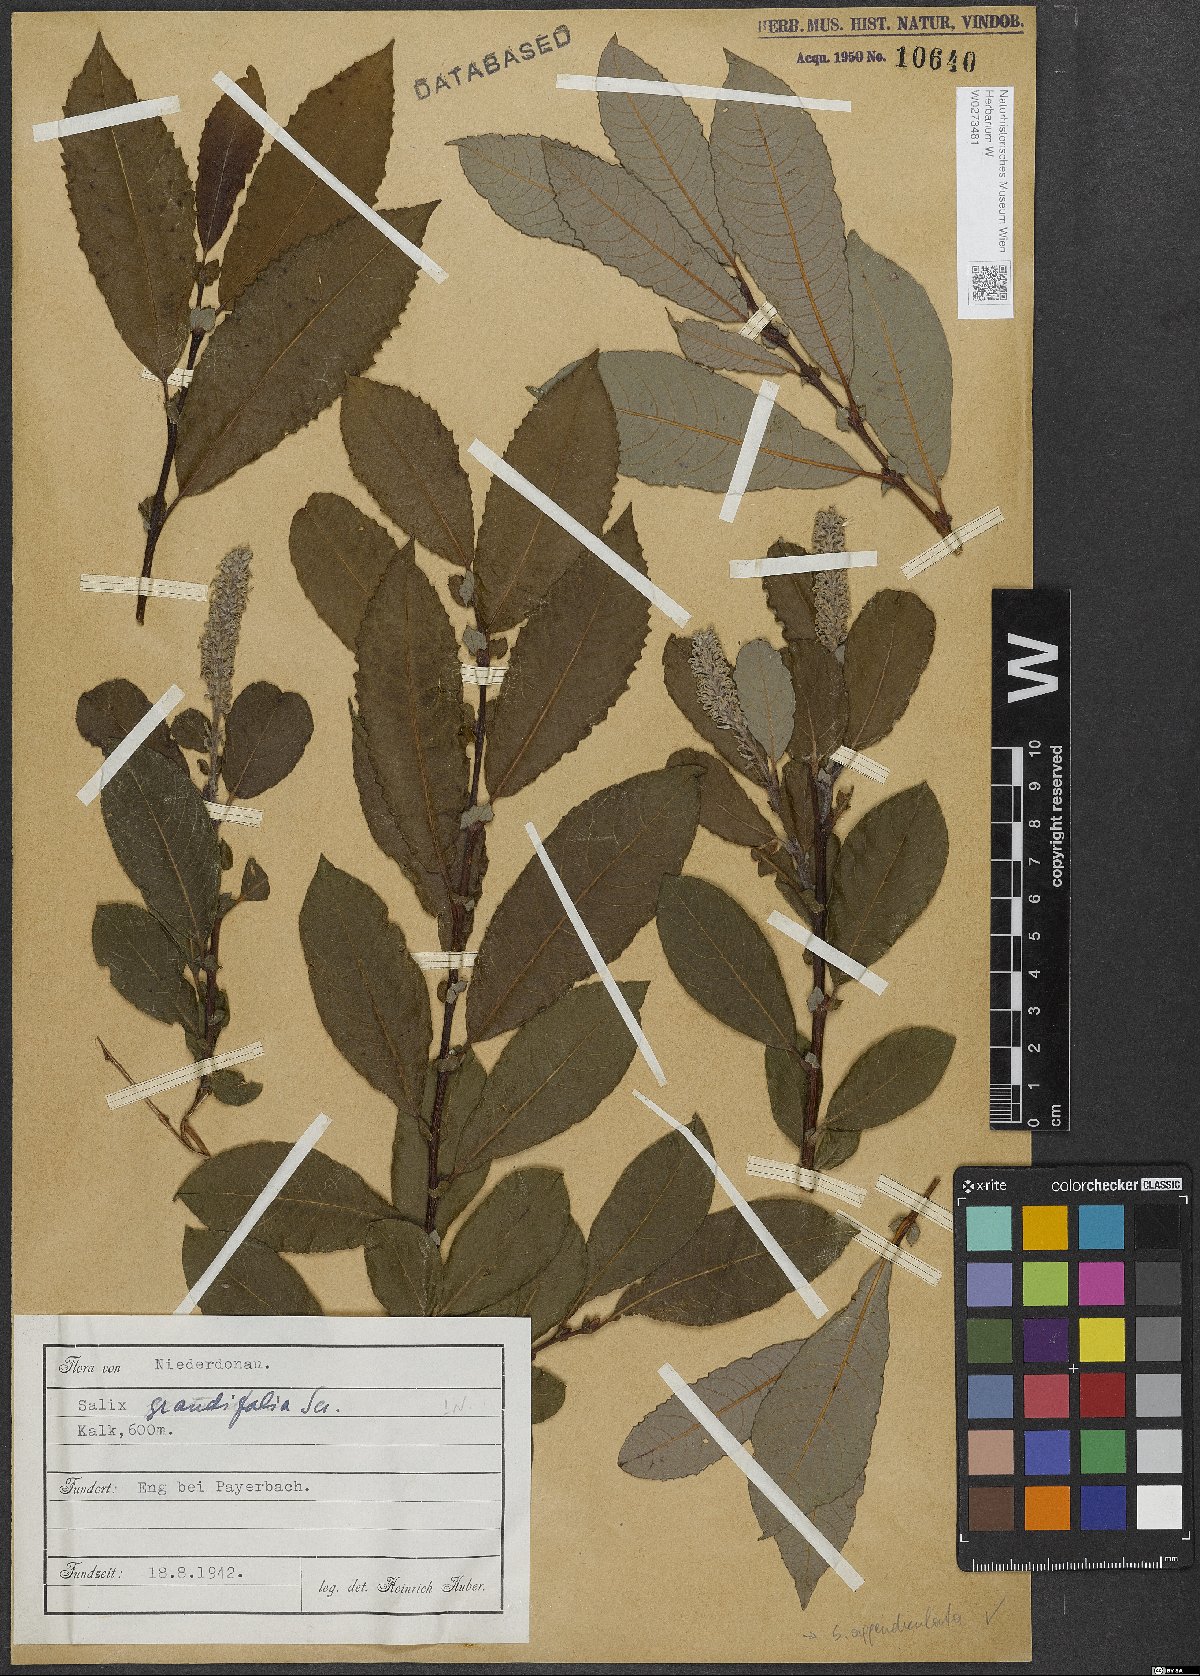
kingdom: Plantae
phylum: Tracheophyta
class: Magnoliopsida
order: Malpighiales
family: Salicaceae
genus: Salix
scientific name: Salix appendiculata
